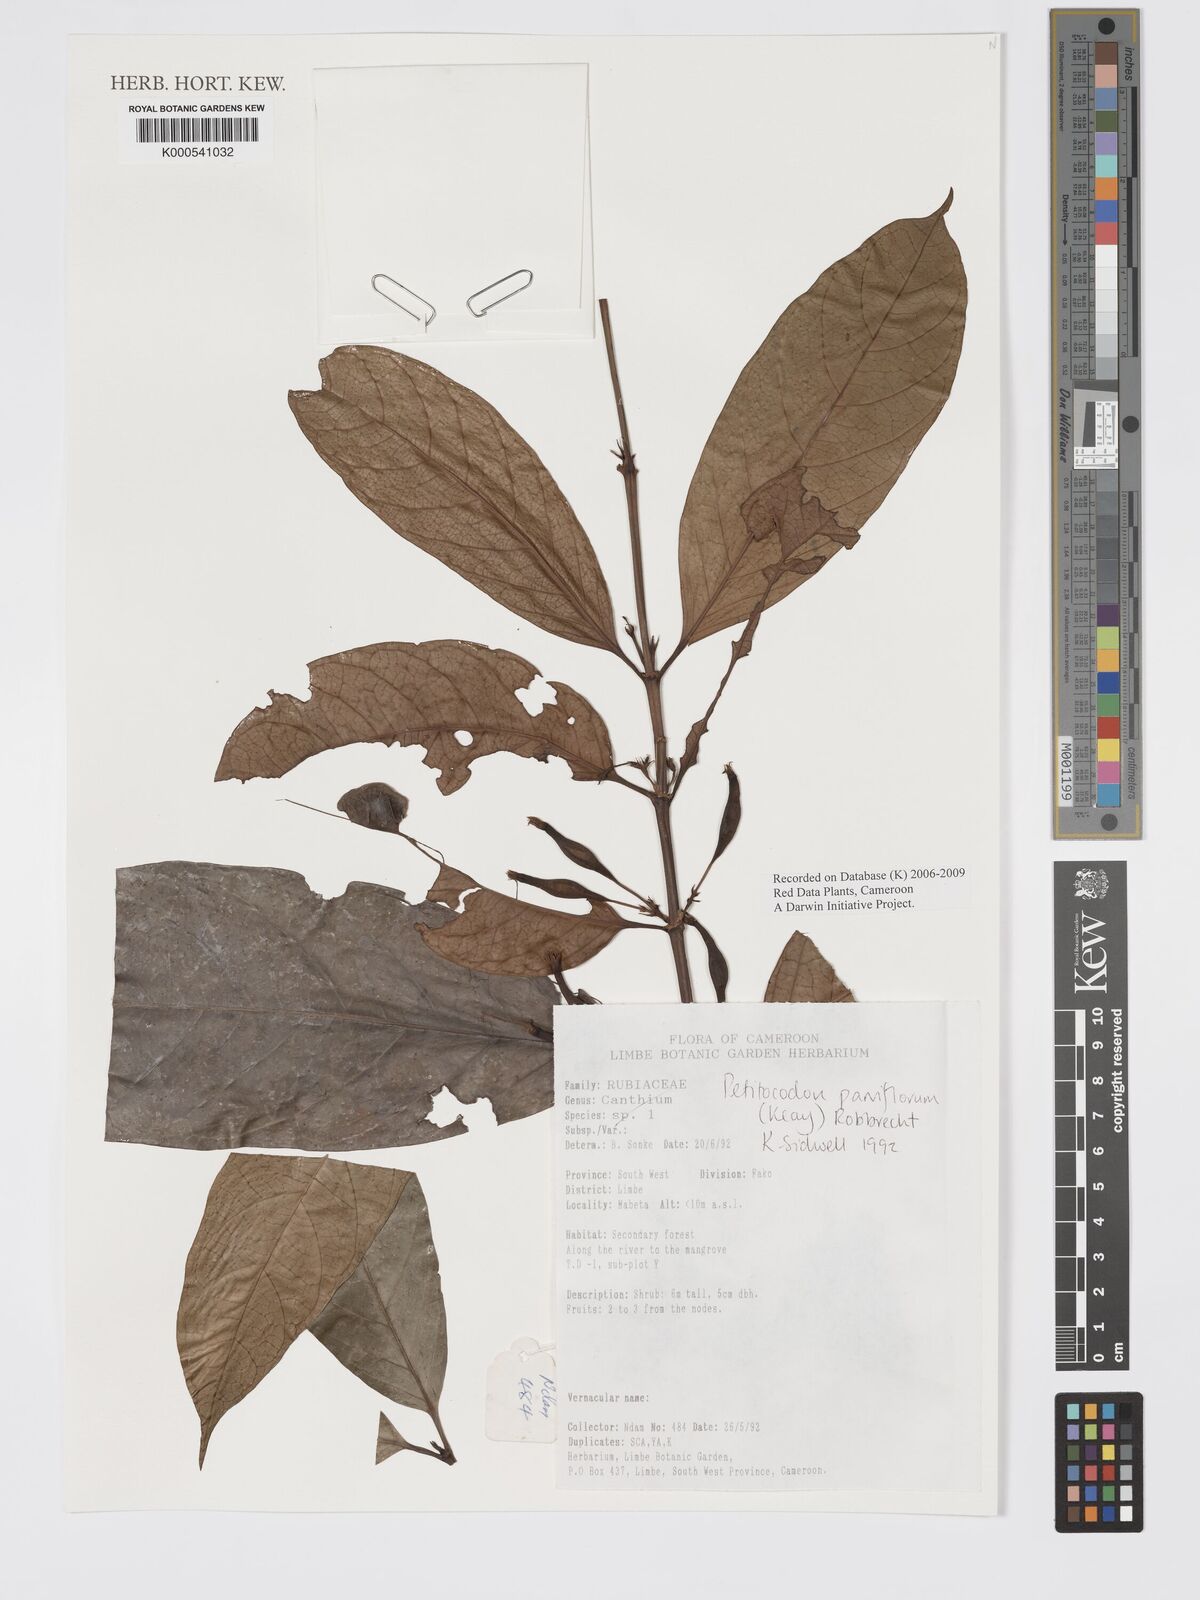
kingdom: Plantae
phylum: Tracheophyta
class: Magnoliopsida
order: Gentianales
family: Rubiaceae
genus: Petitiocodon
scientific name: Petitiocodon parviflorum
